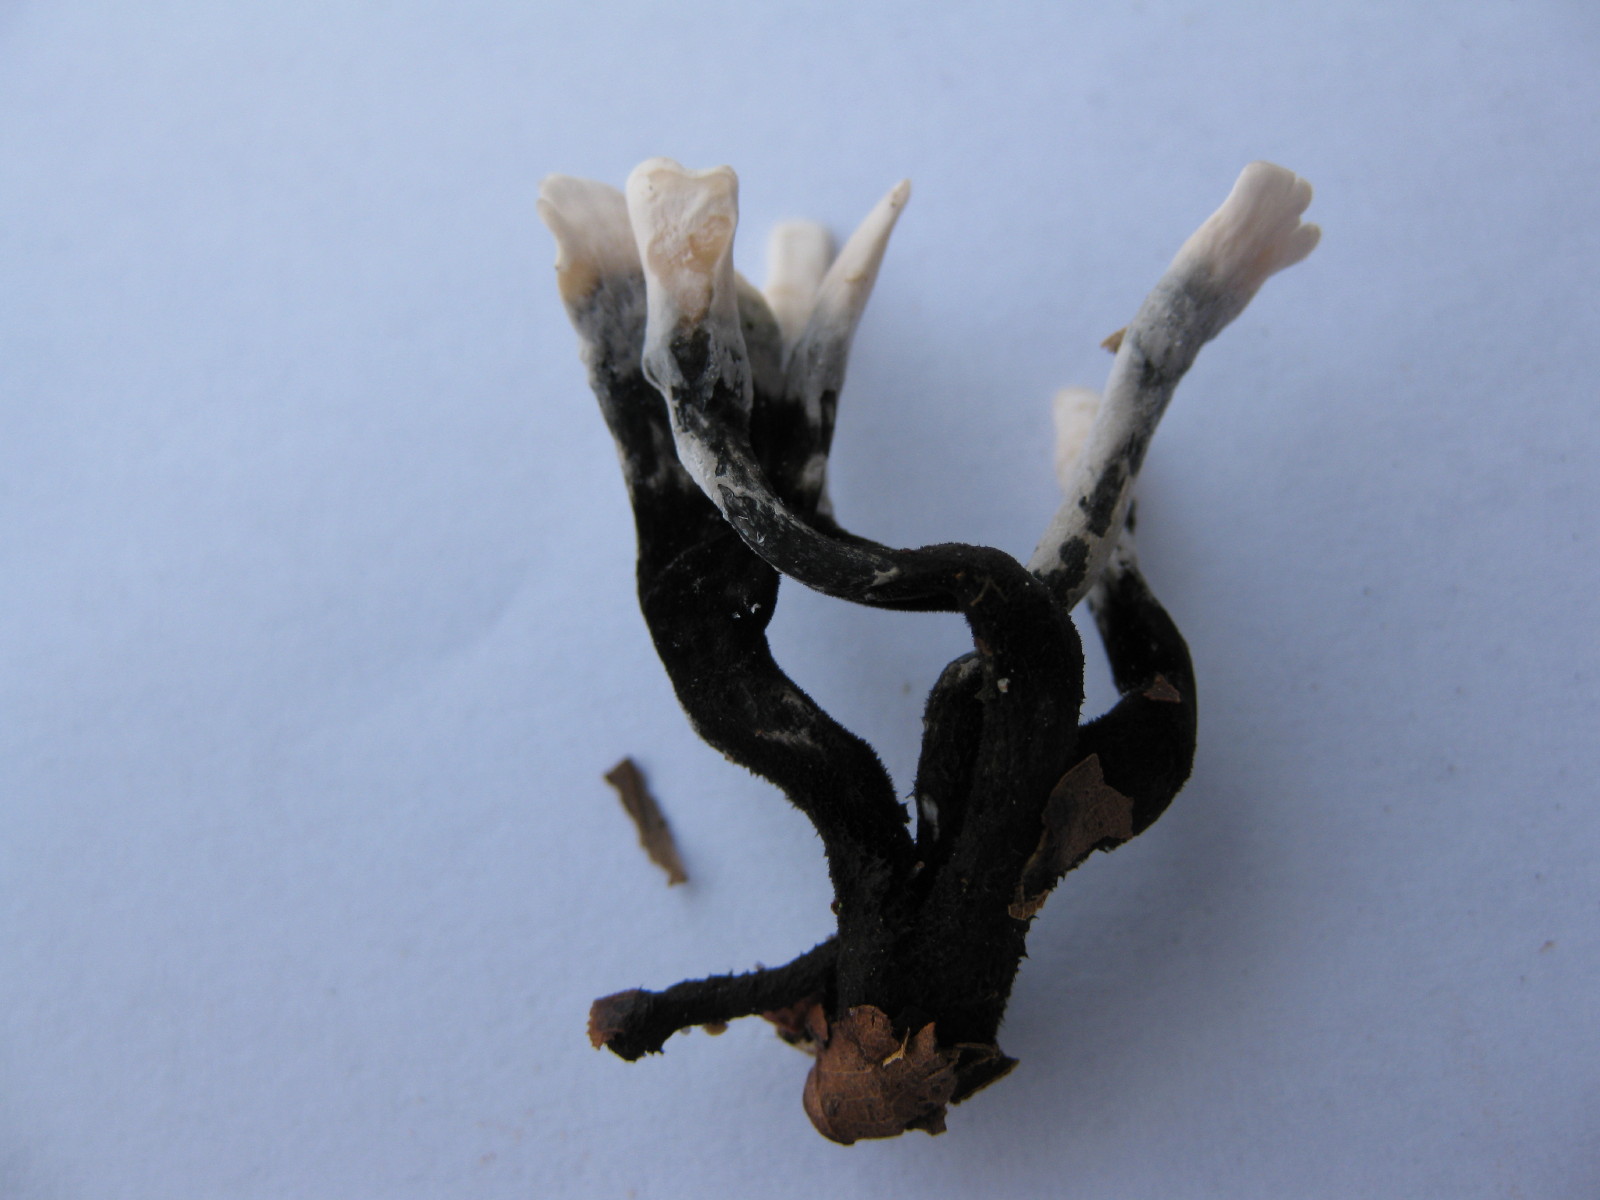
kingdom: Fungi
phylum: Ascomycota
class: Sordariomycetes
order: Xylariales
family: Xylariaceae
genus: Xylaria
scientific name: Xylaria hypoxylon
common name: grenet stødsvamp
